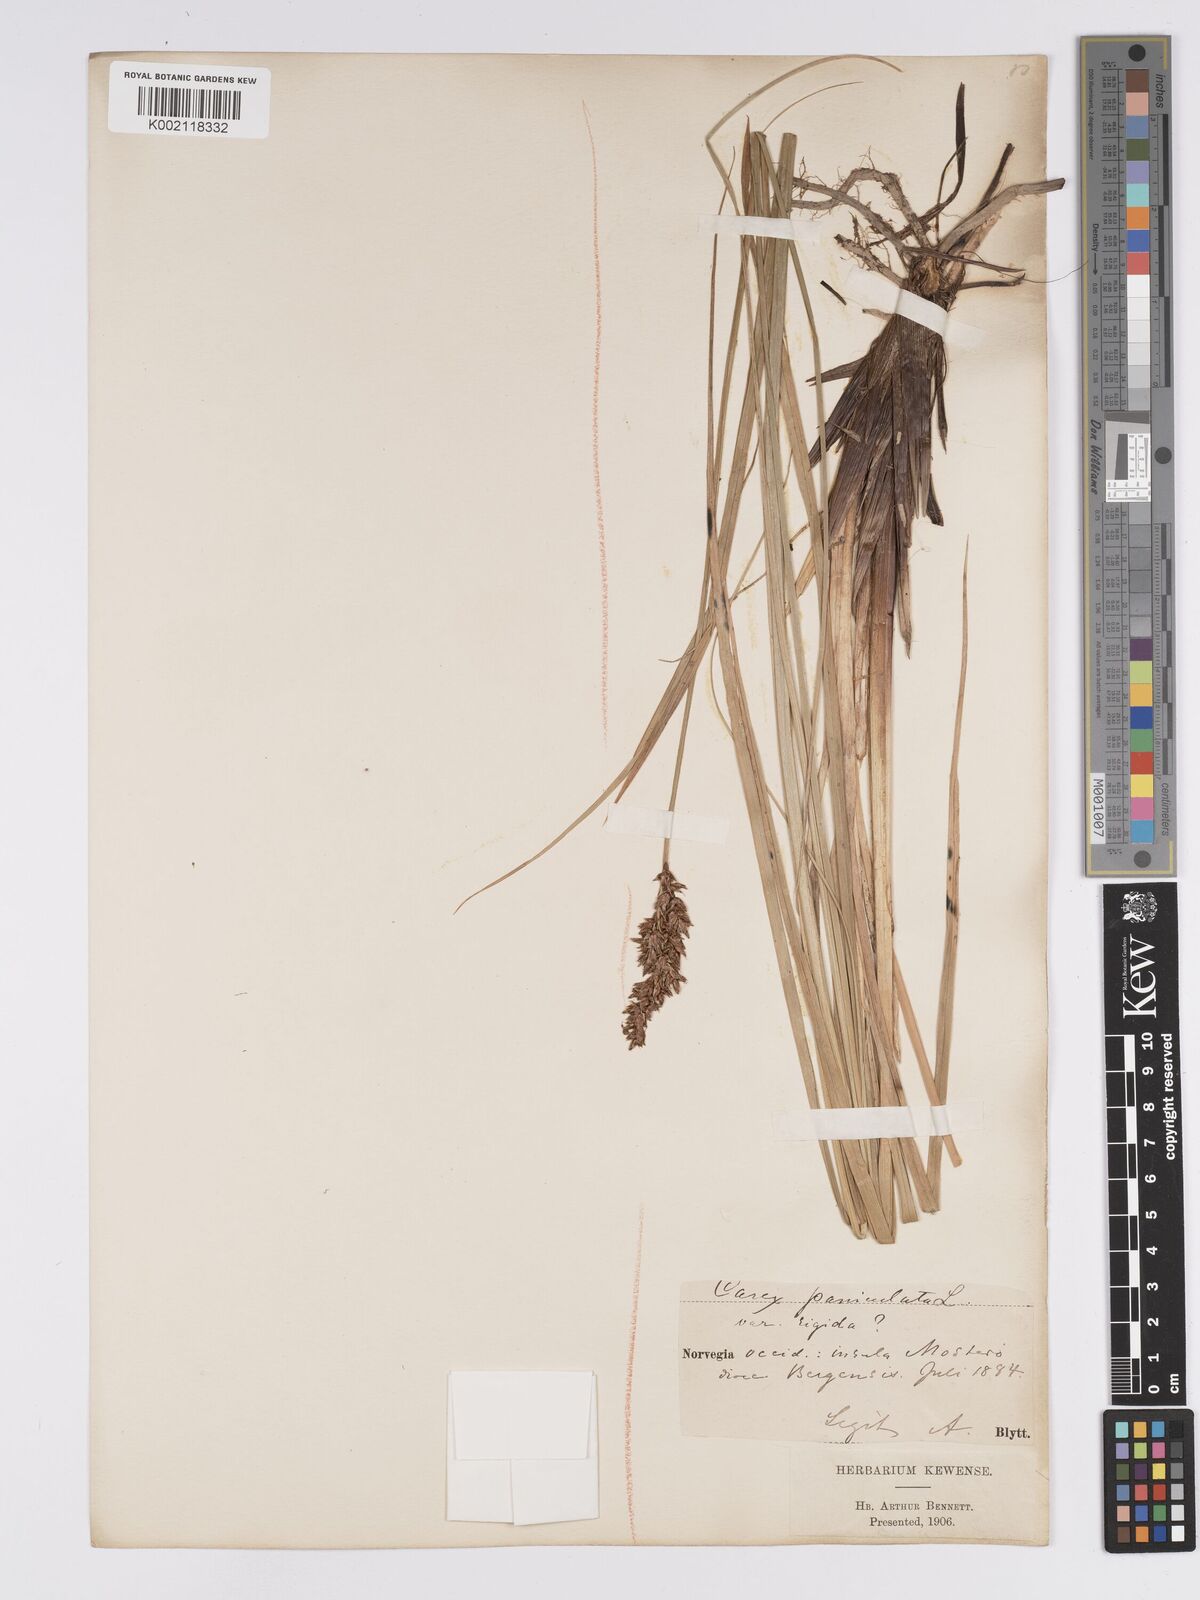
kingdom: Plantae
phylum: Tracheophyta
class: Liliopsida
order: Poales
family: Cyperaceae
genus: Carex
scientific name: Carex paniculata
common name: Greater tussock-sedge
